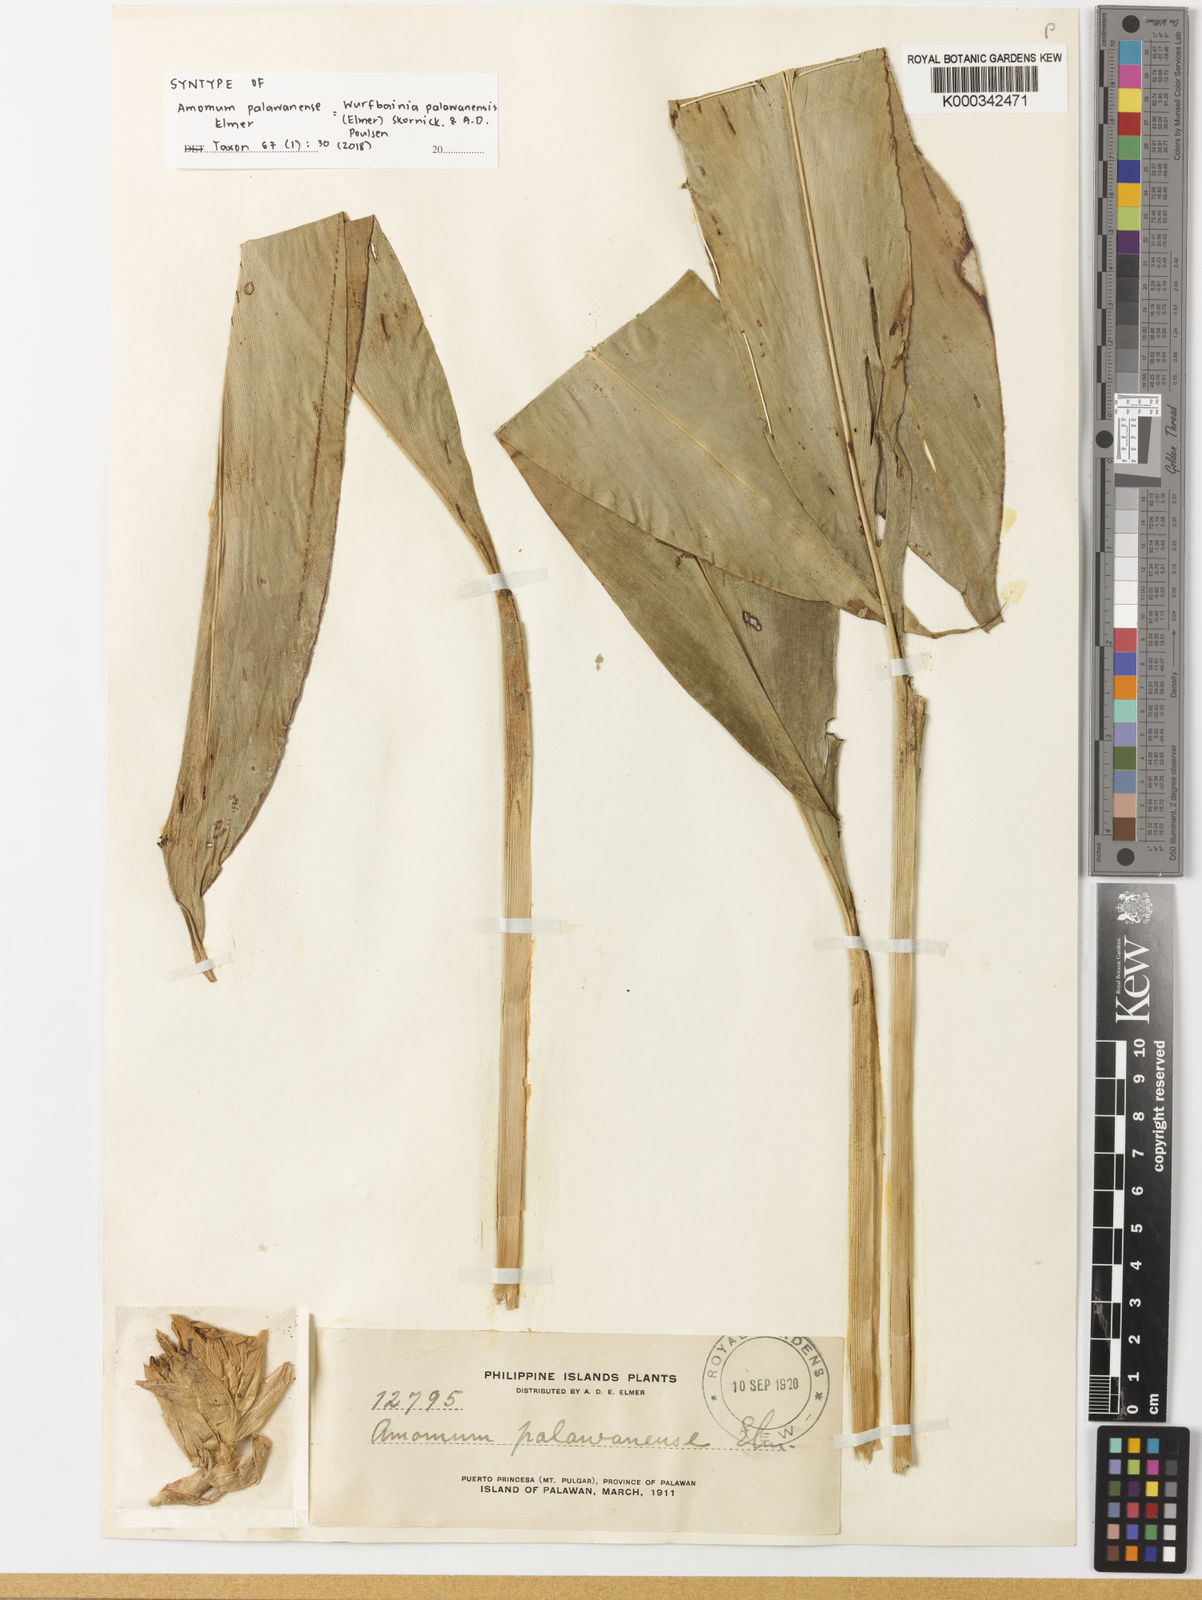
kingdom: Plantae
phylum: Tracheophyta
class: Liliopsida
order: Zingiberales
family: Zingiberaceae
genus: Wurfbainia
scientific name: Wurfbainia palawanensis
